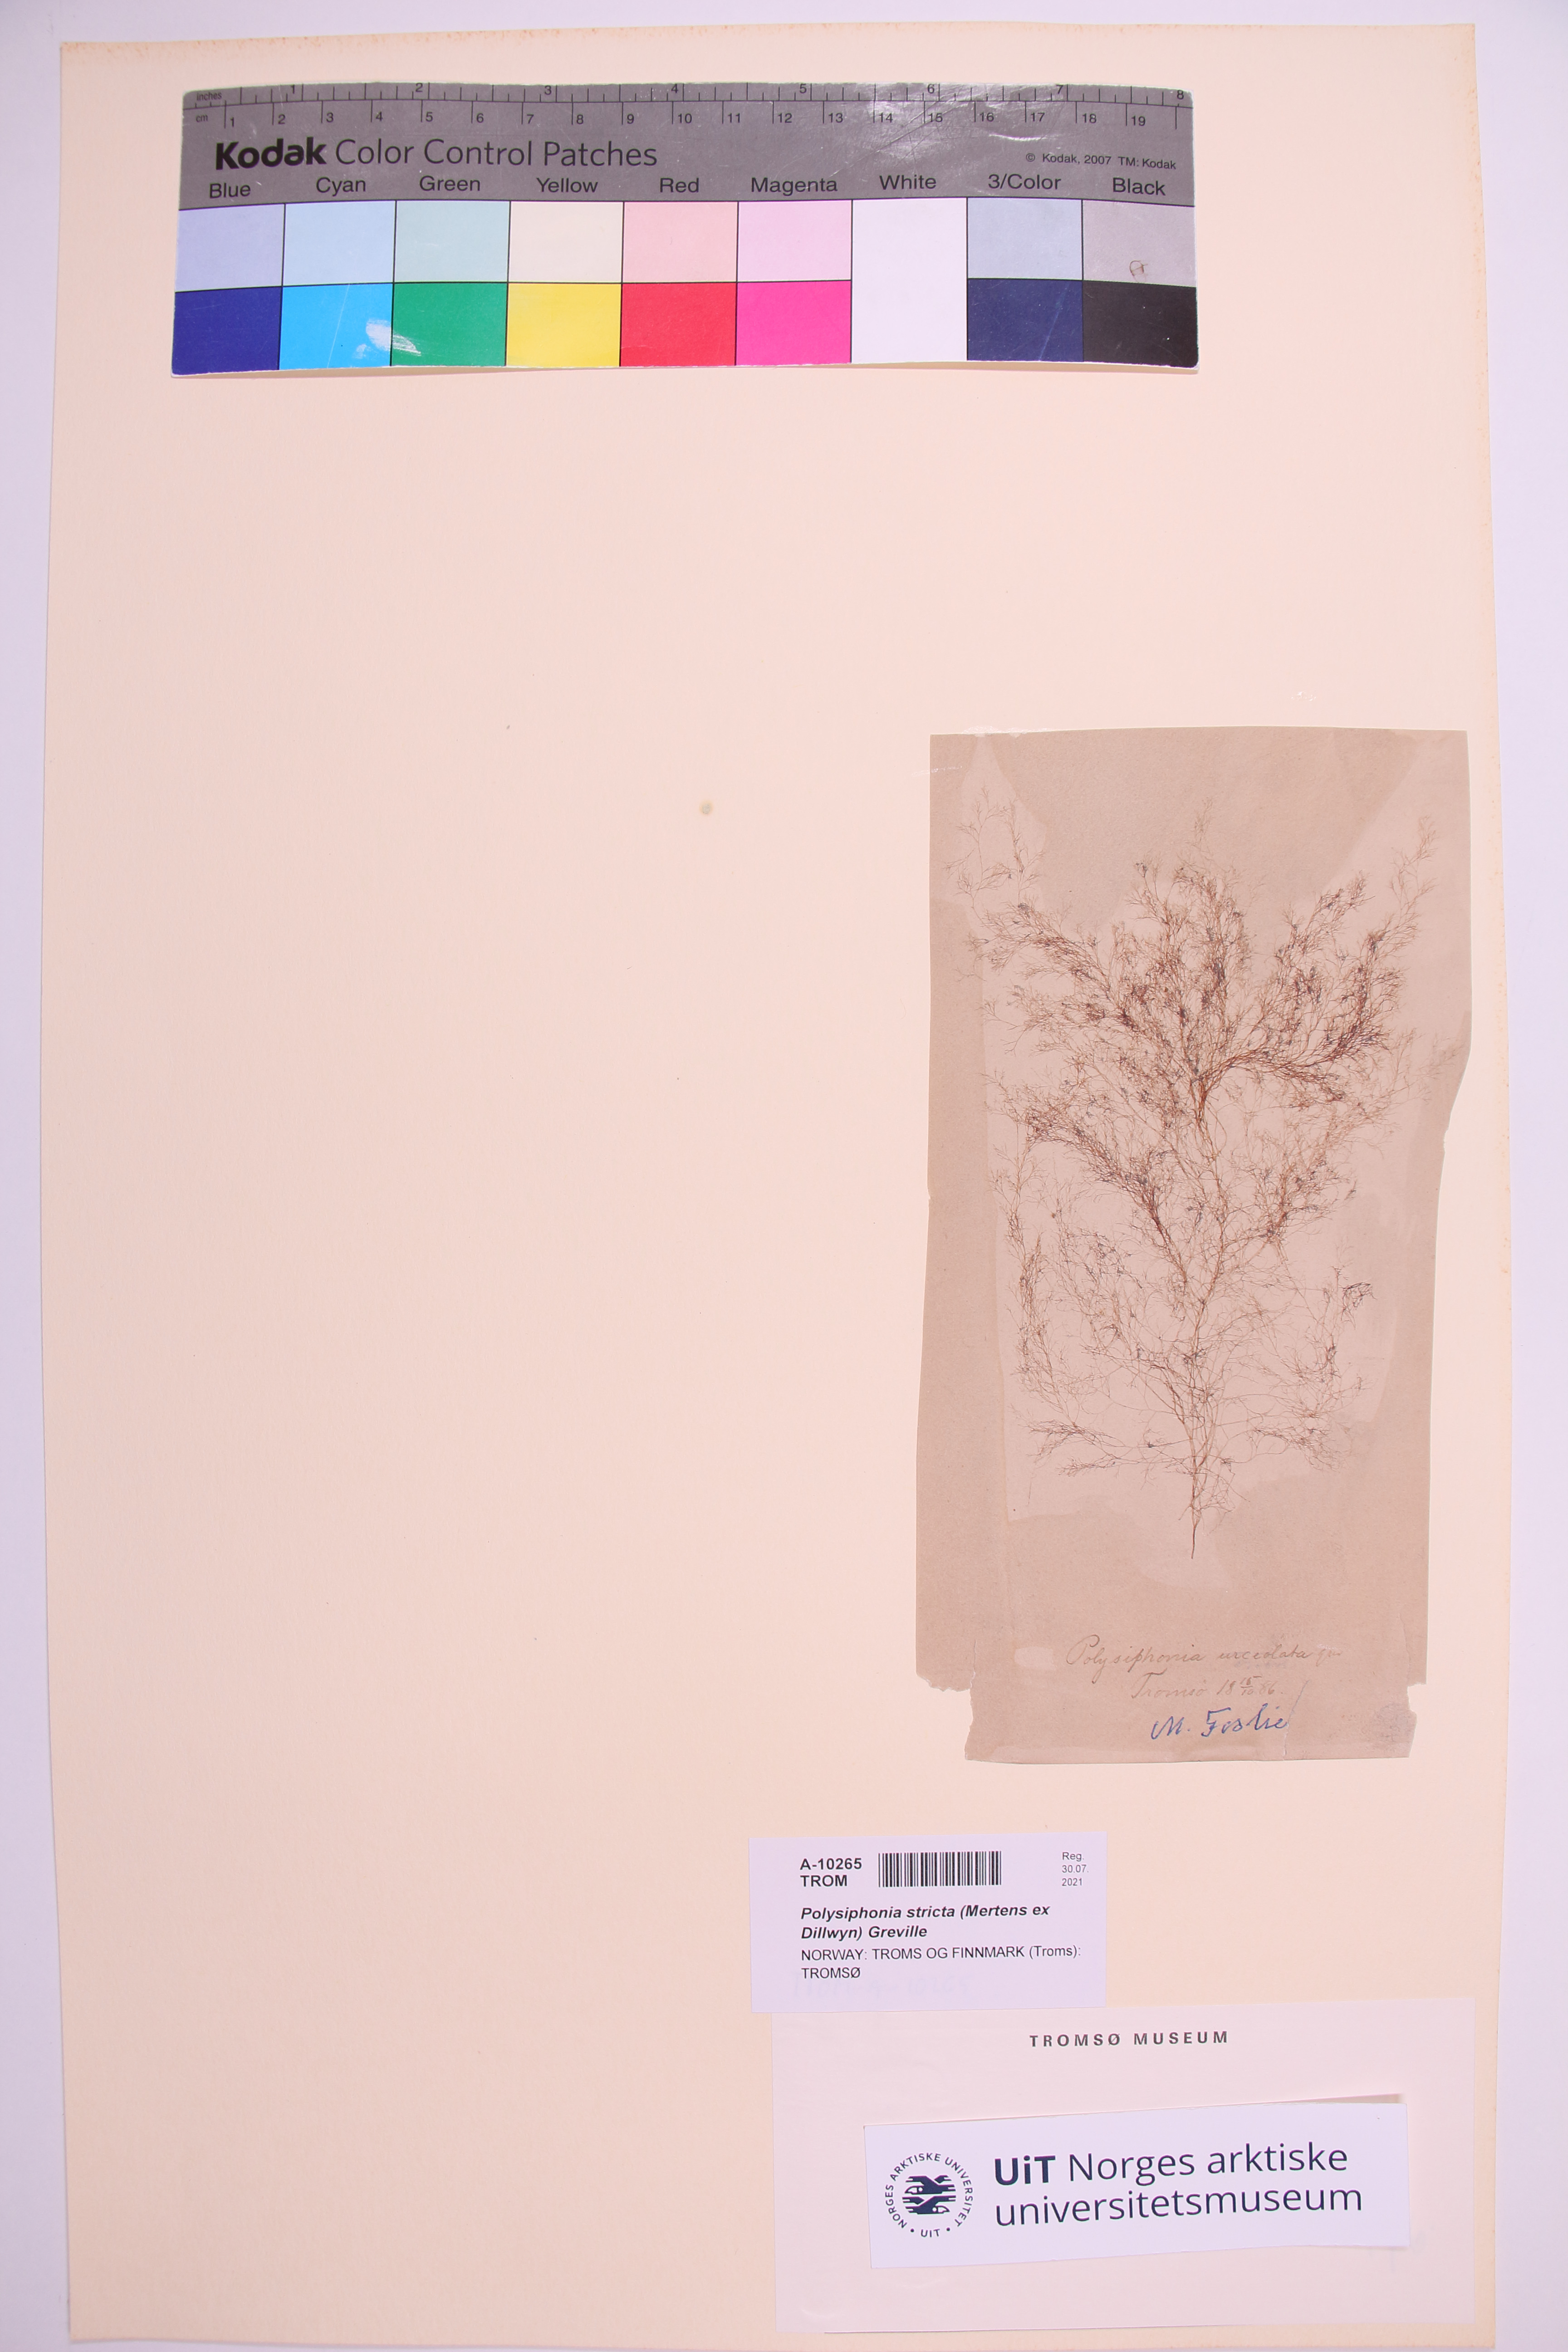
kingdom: Plantae
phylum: Rhodophyta
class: Florideophyceae
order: Ceramiales
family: Rhodomelaceae
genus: Polysiphonia
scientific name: Polysiphonia stricta
